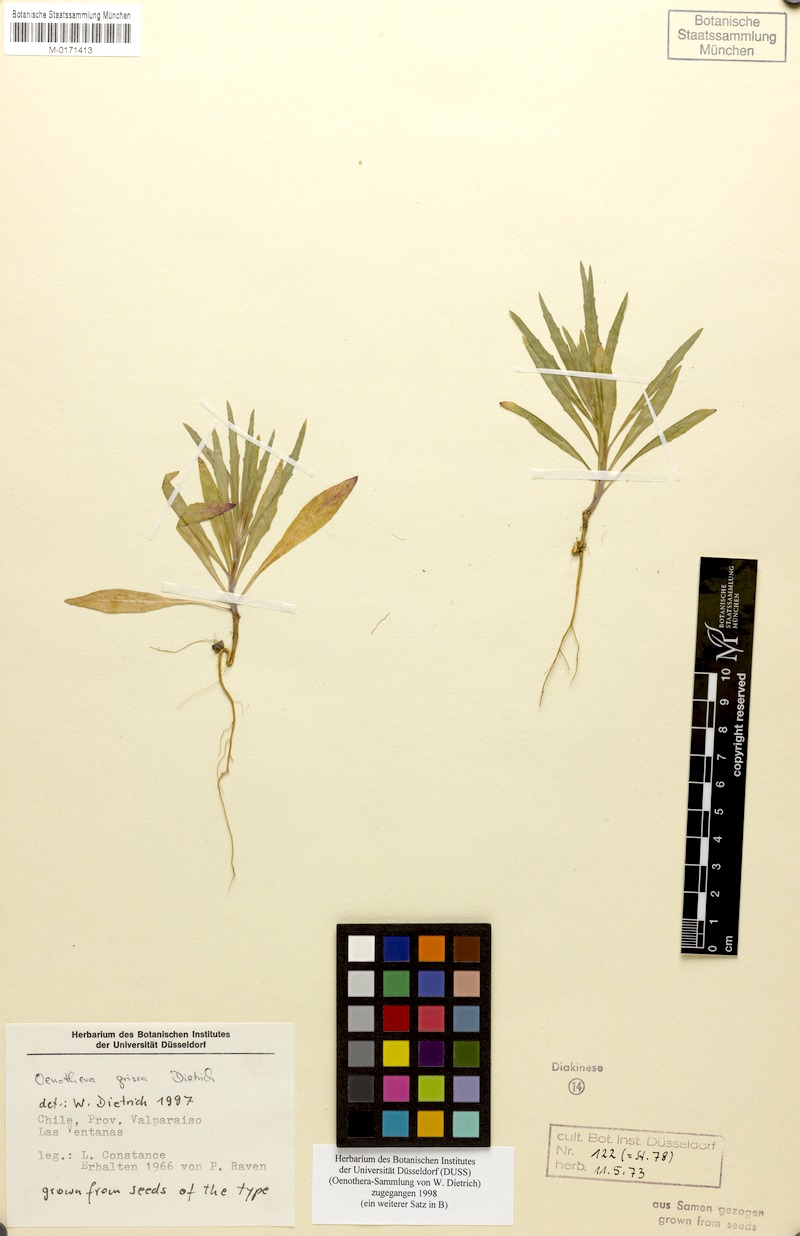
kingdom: Plantae
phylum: Tracheophyta
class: Magnoliopsida
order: Myrtales
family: Onagraceae
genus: Oenothera
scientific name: Oenothera grisea
